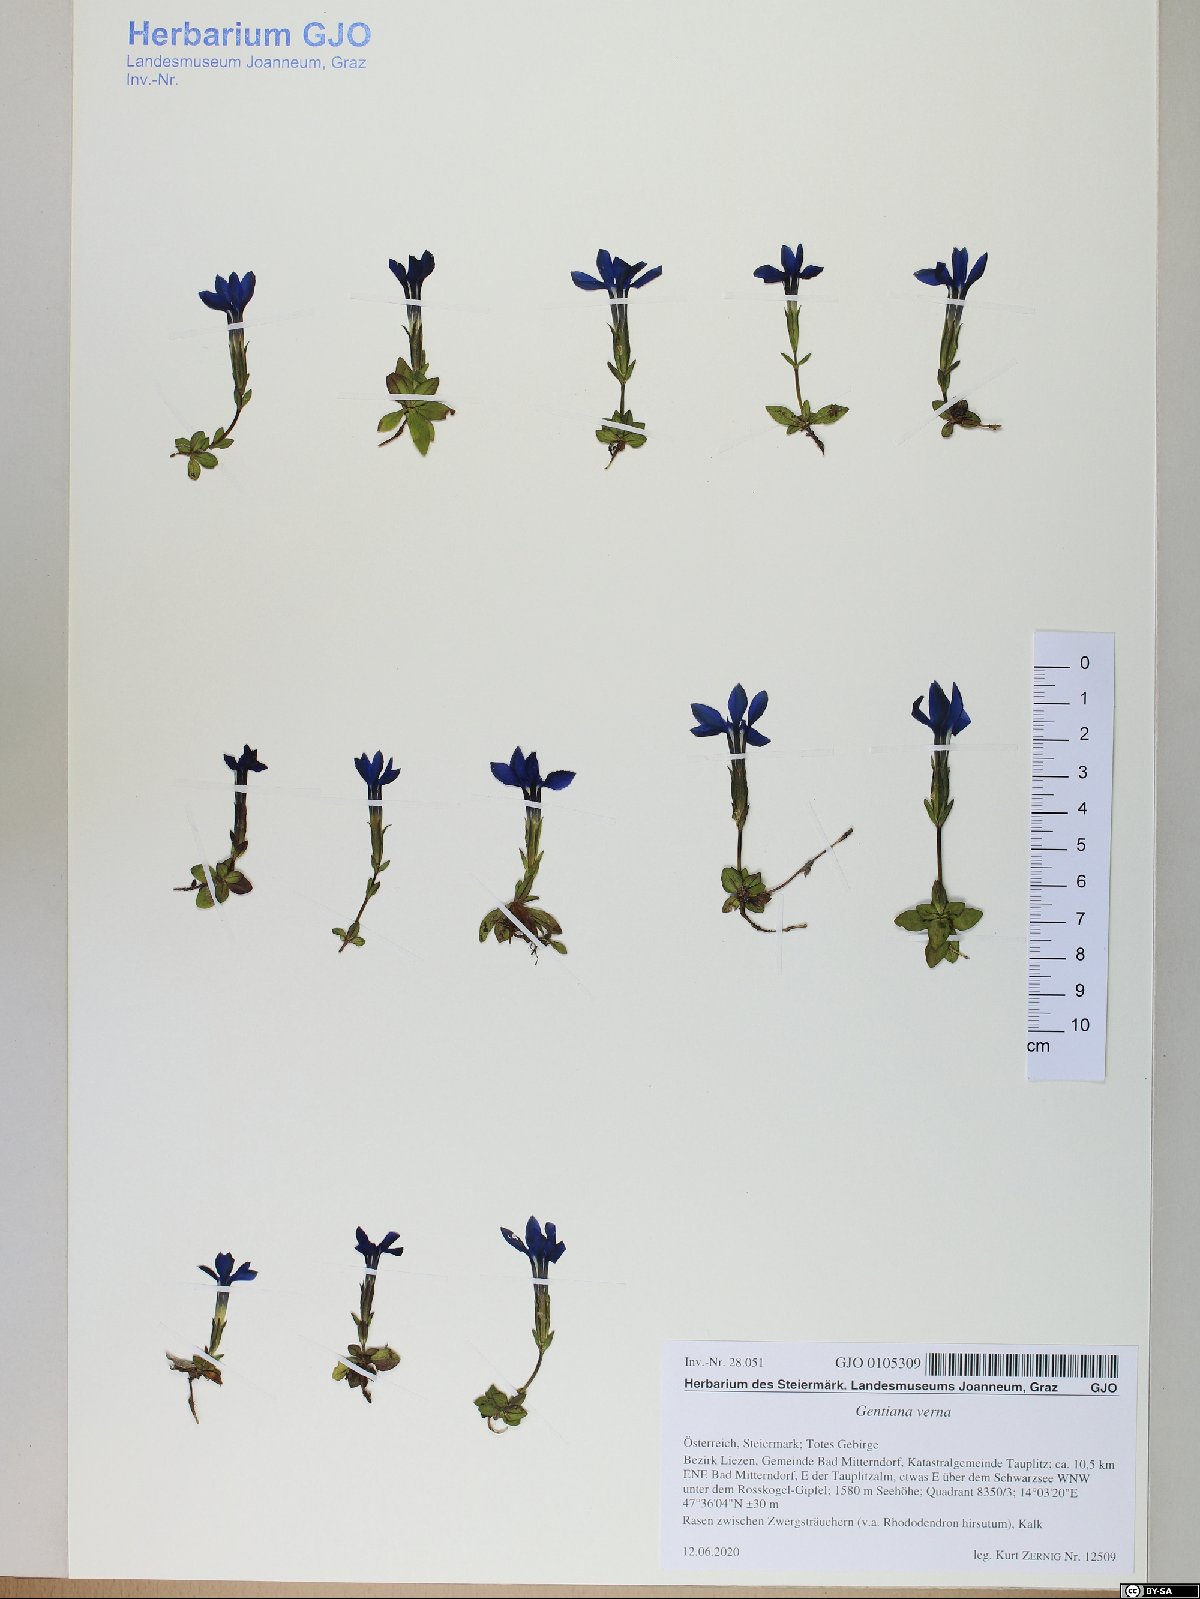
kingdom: Plantae
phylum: Tracheophyta
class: Magnoliopsida
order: Gentianales
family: Gentianaceae
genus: Gentiana
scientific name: Gentiana verna
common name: Spring gentian
